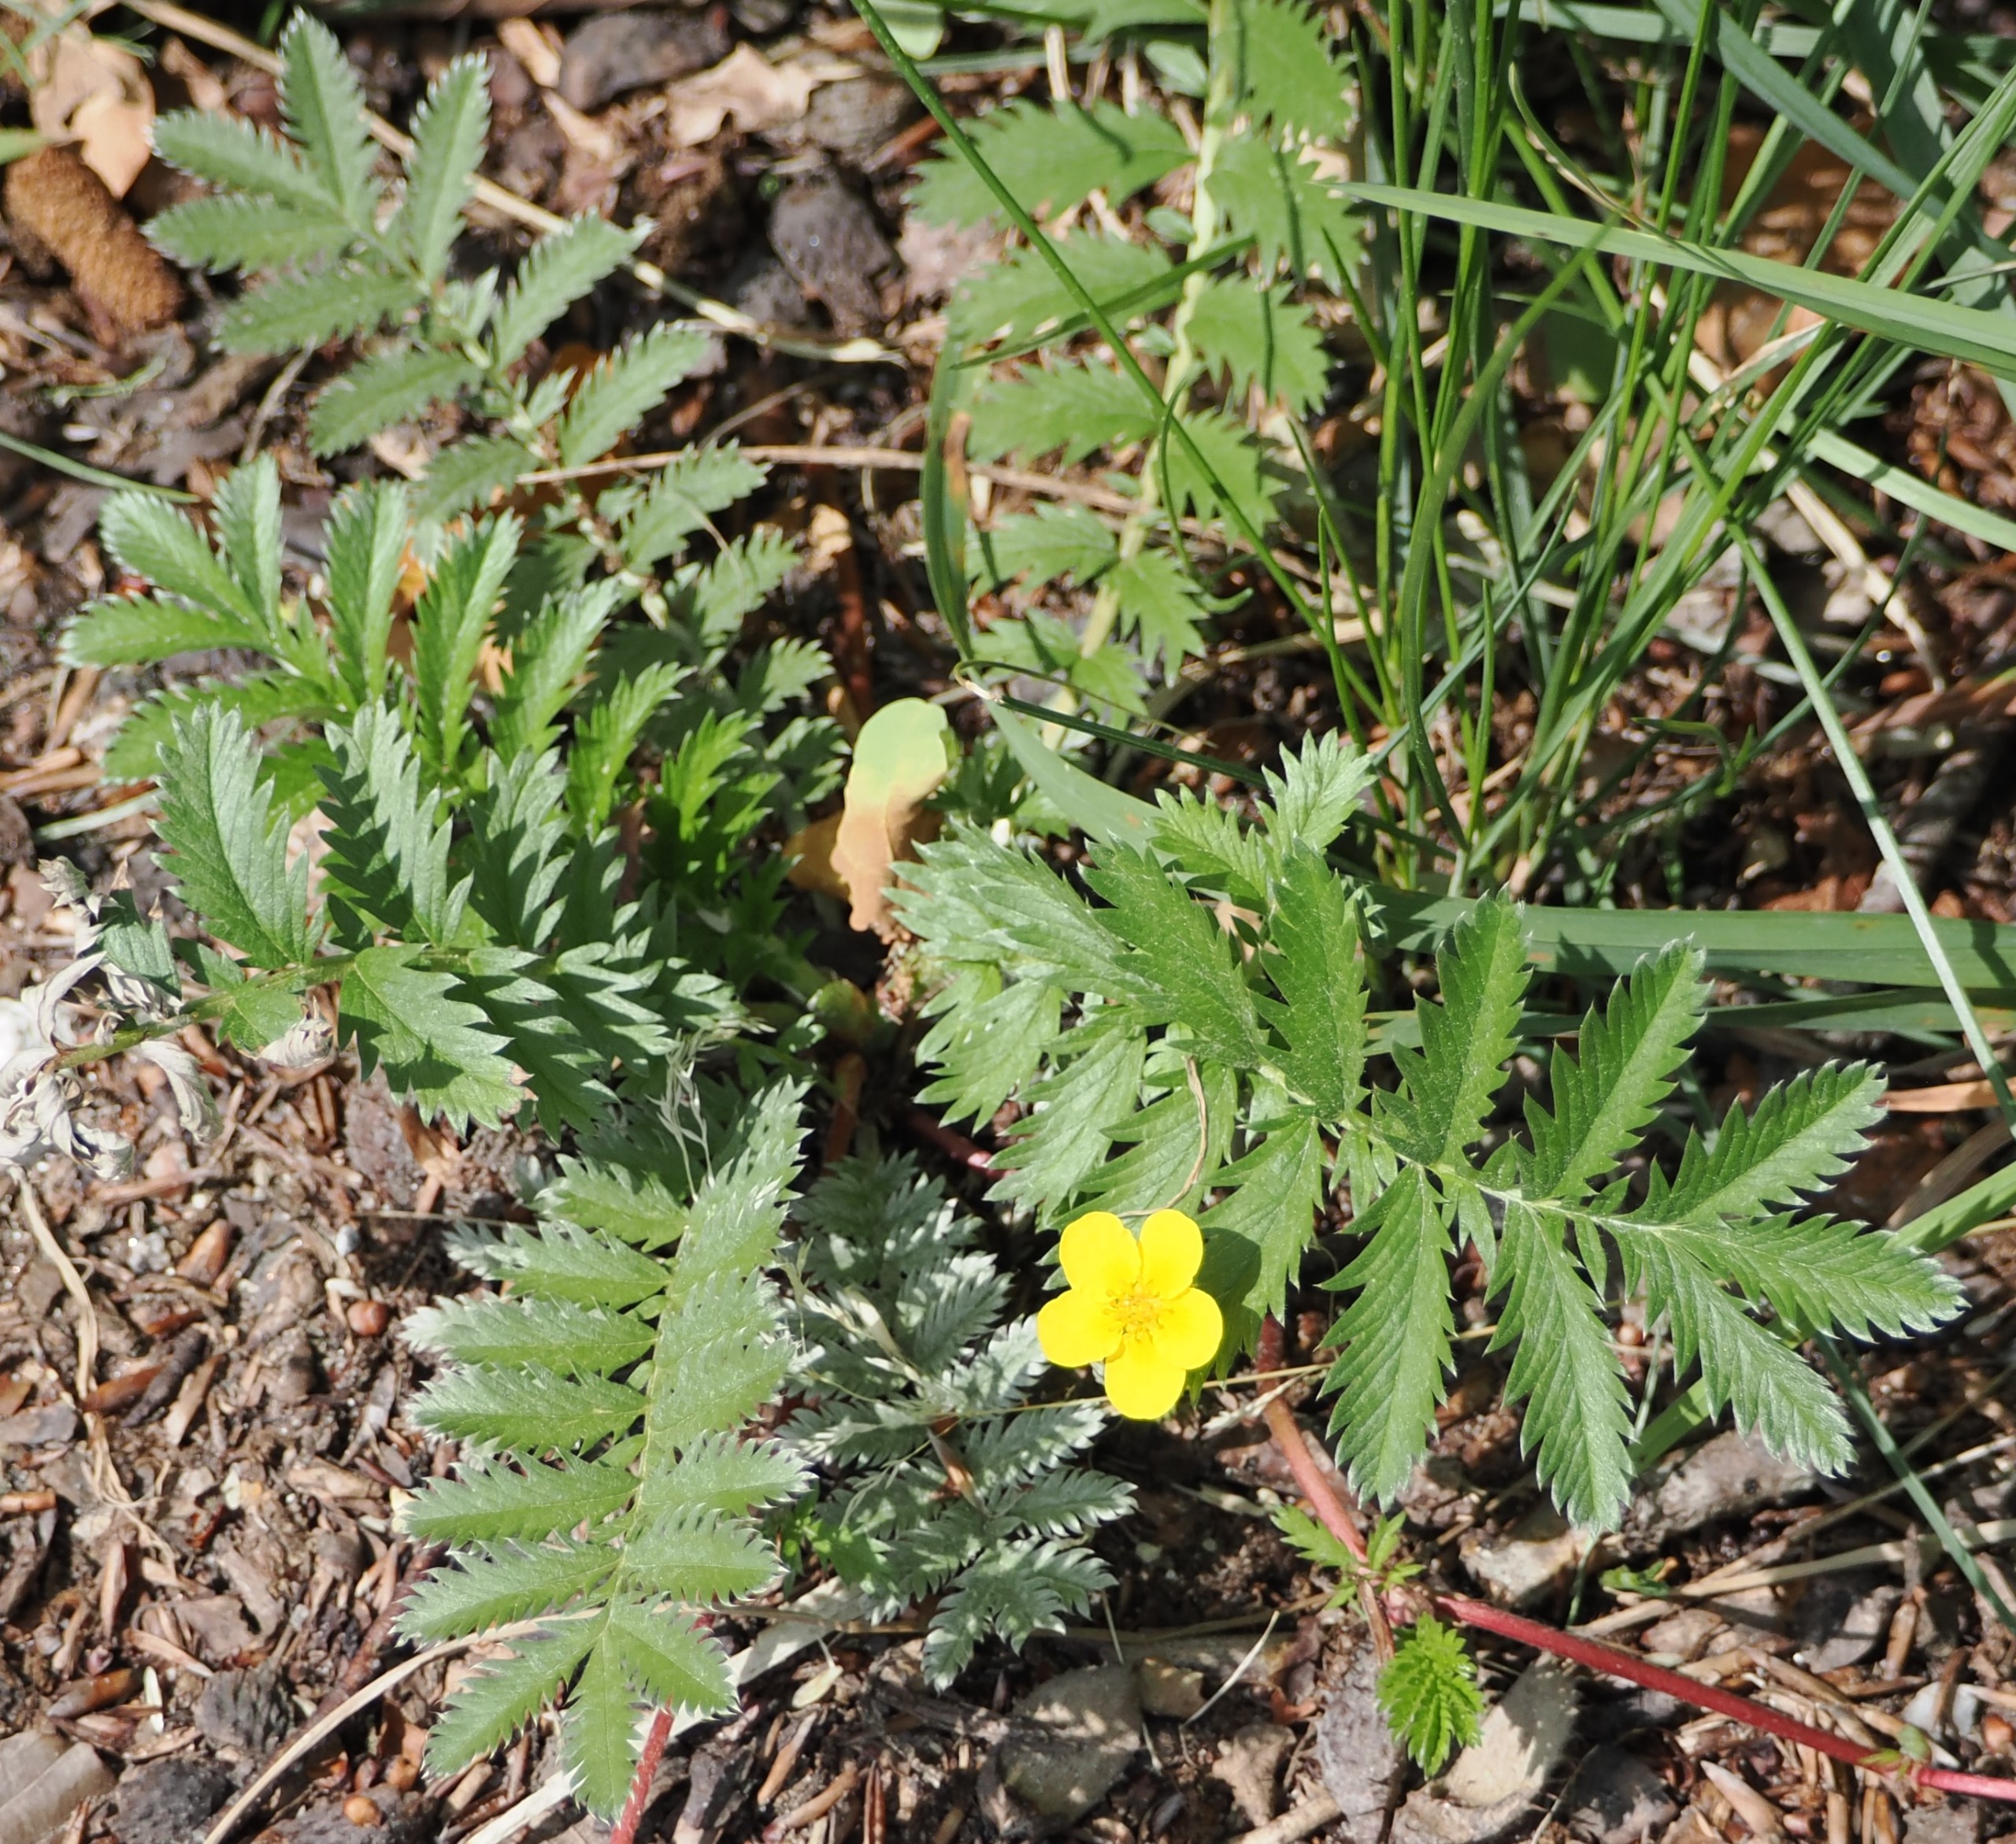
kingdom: Plantae
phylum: Tracheophyta
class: Magnoliopsida
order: Rosales
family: Rosaceae
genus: Argentina
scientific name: Argentina anserina
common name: Gåsepotentil
